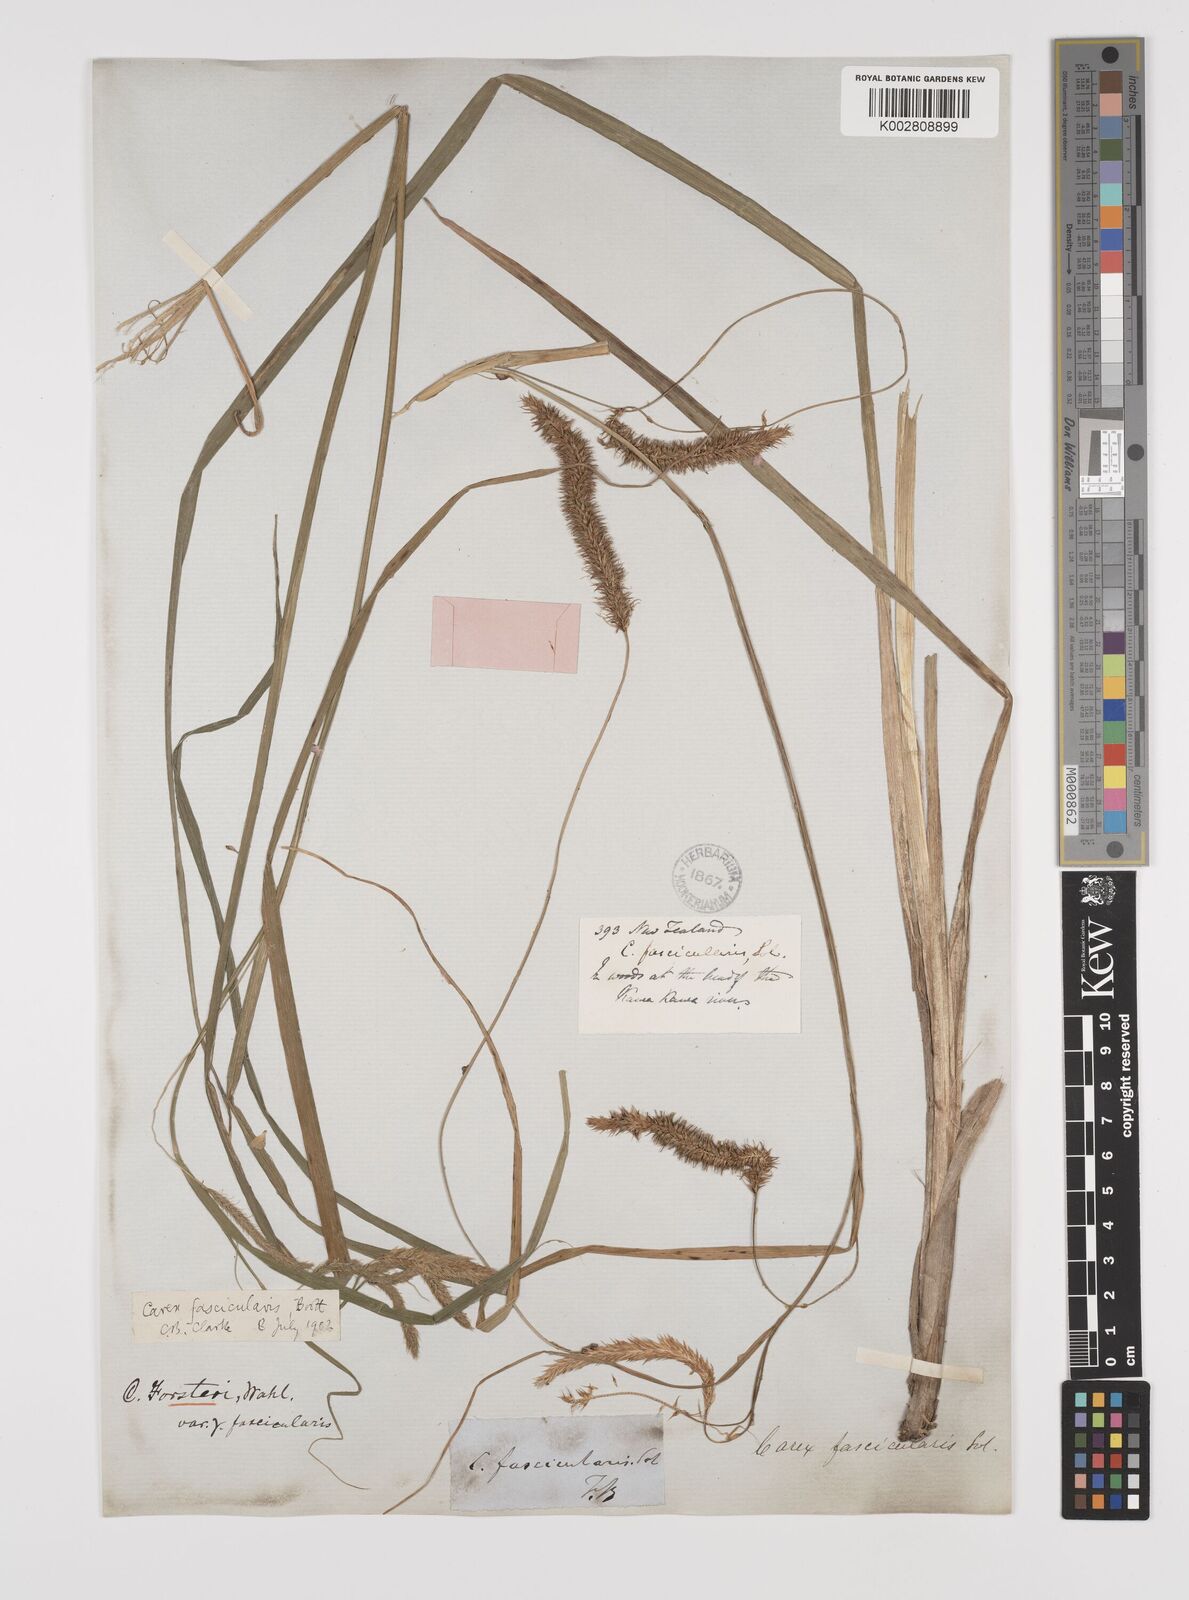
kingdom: Plantae
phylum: Tracheophyta
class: Liliopsida
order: Poales
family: Cyperaceae
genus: Carex
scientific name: Carex pseudocyperus
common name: Cyperus sedge
